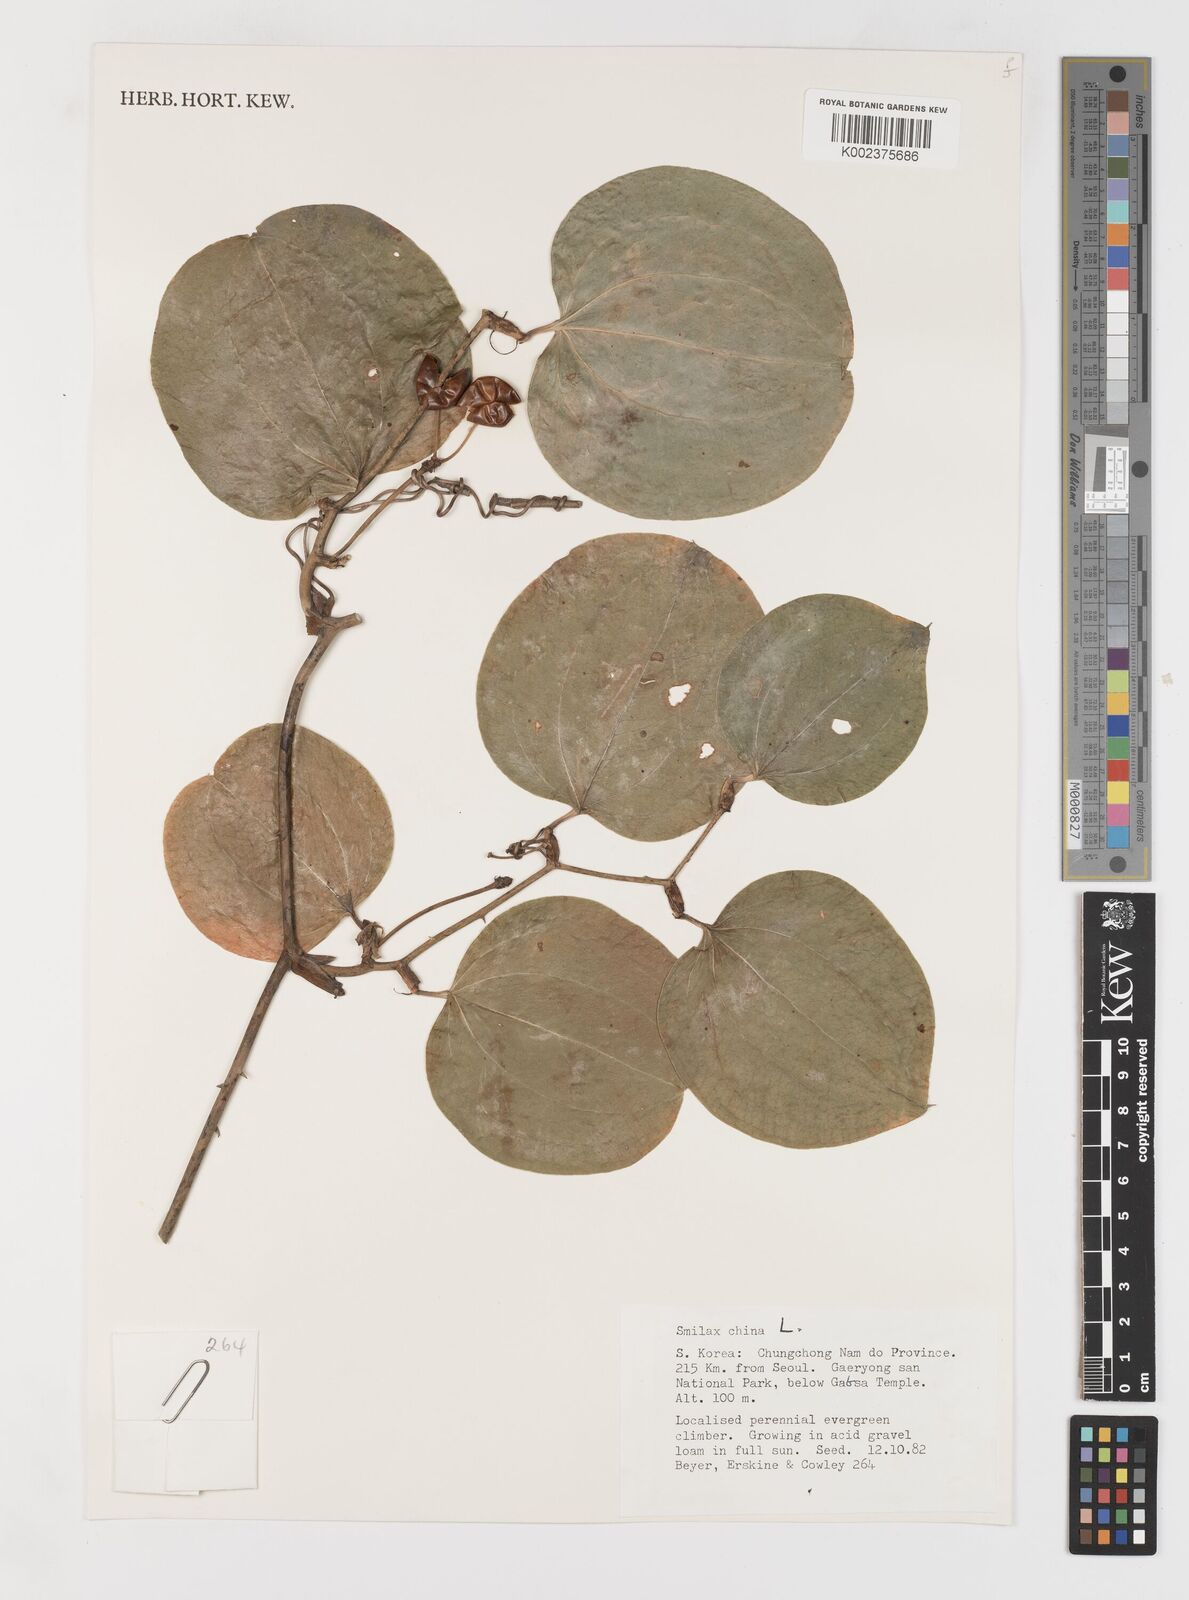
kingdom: Plantae
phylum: Tracheophyta
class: Liliopsida
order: Liliales
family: Smilacaceae
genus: Smilax
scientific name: Smilax china
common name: Chinaroot
